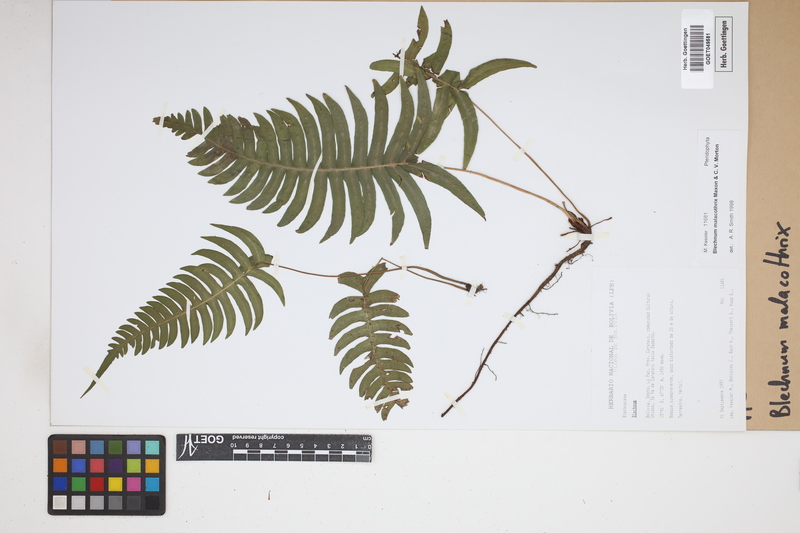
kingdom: Plantae
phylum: Tracheophyta
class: Polypodiopsida
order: Polypodiales
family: Blechnaceae
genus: Blechnum
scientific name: Blechnum malacothrix
